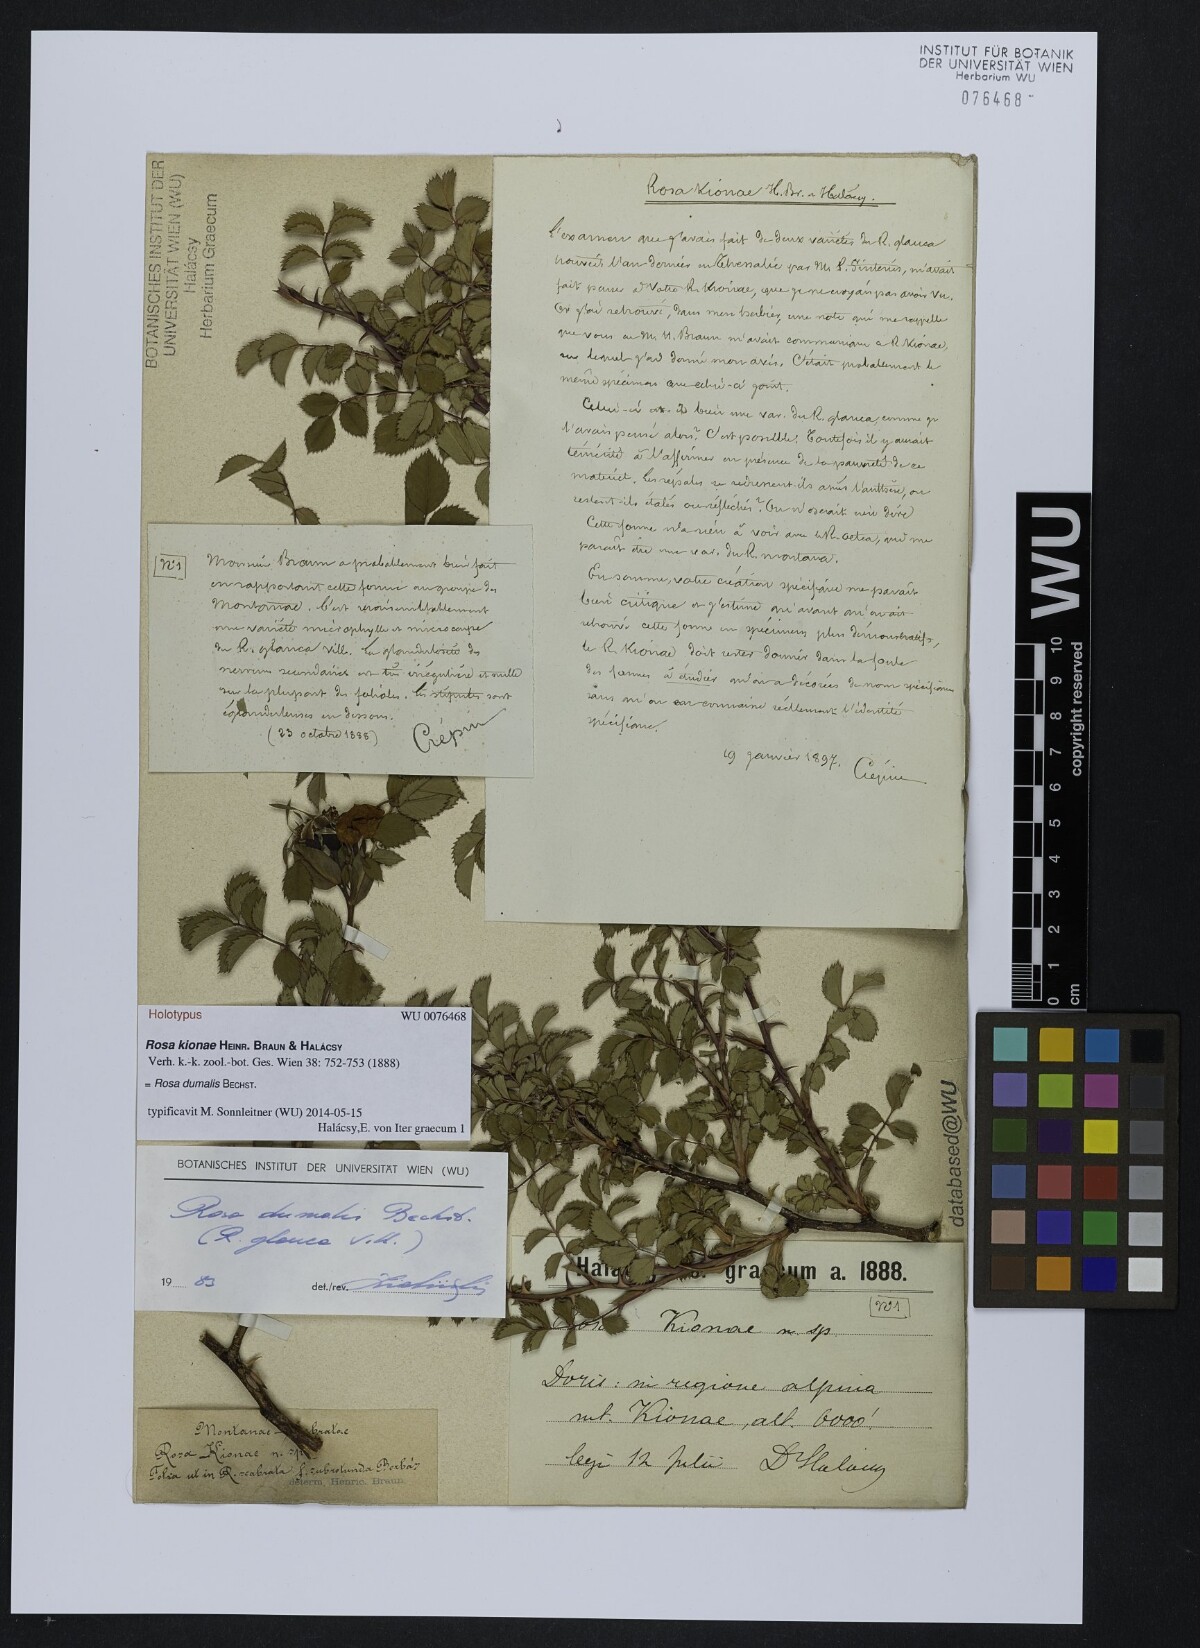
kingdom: Plantae
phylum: Tracheophyta
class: Magnoliopsida
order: Rosales
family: Rosaceae
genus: Rosa
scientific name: Rosa subcanina
